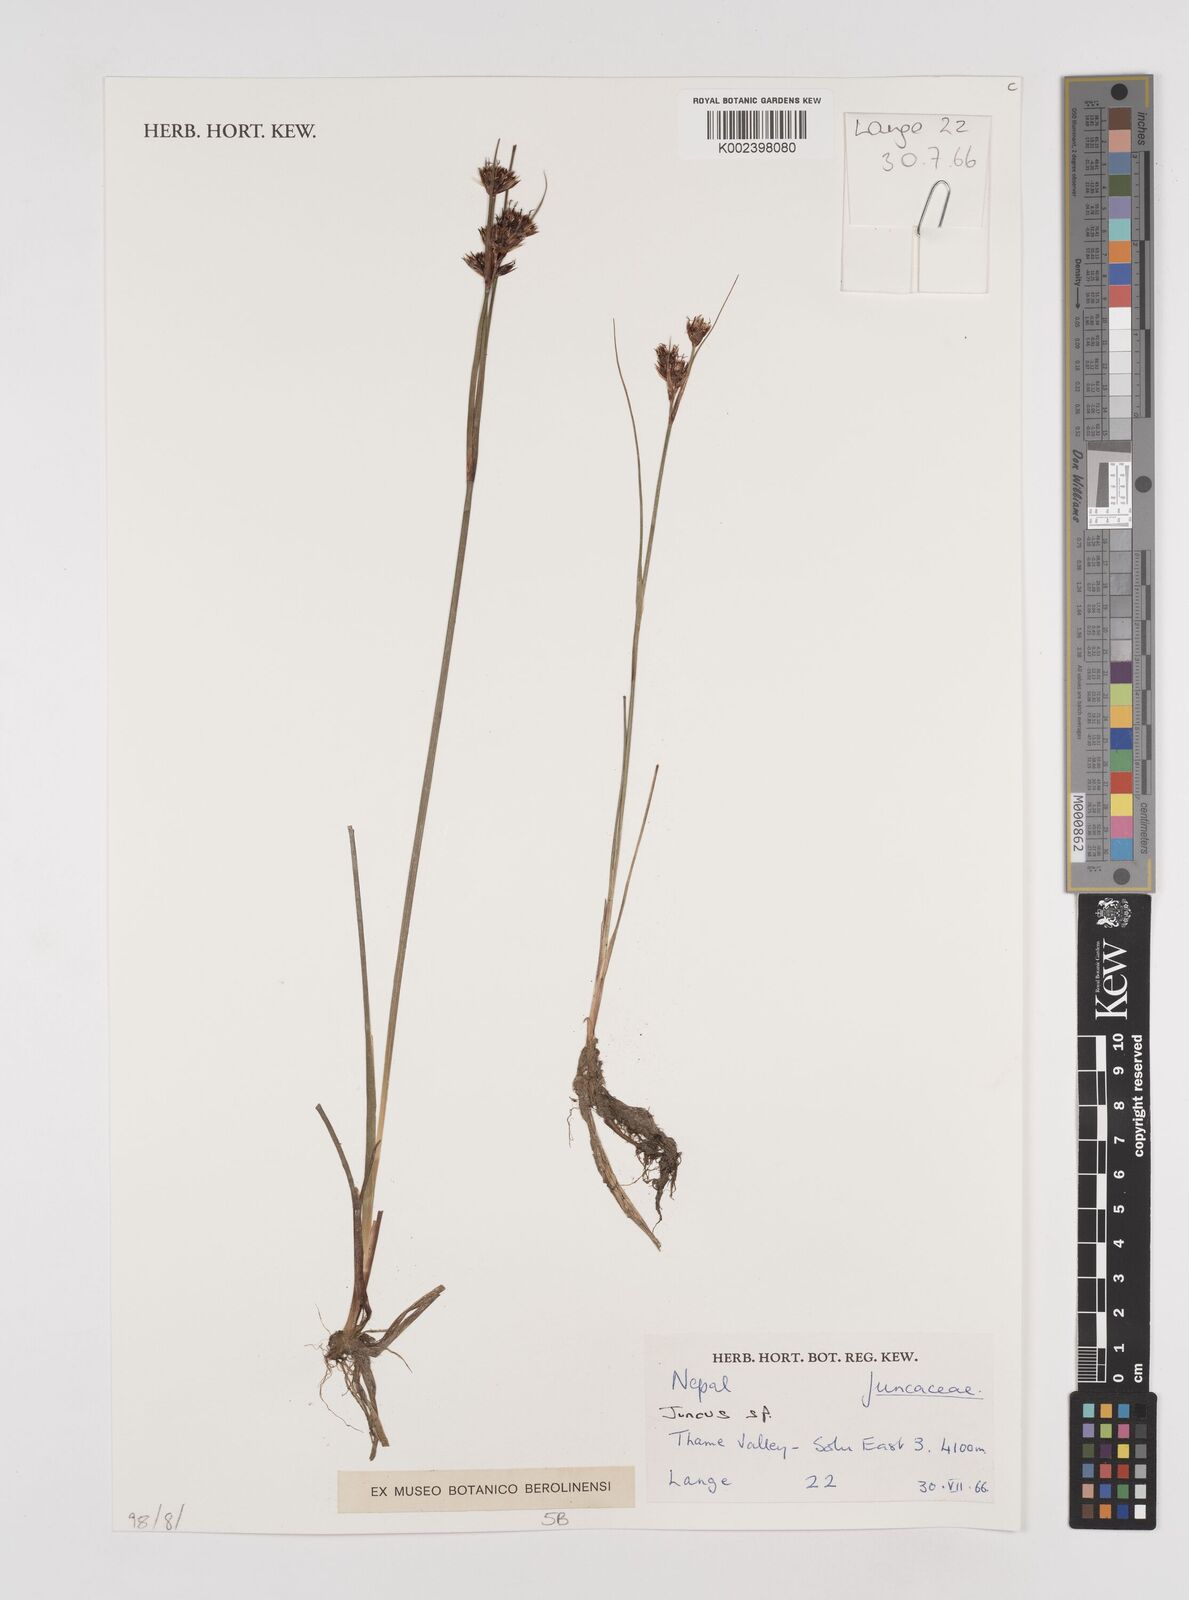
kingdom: Plantae
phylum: Tracheophyta
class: Liliopsida
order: Poales
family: Juncaceae
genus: Juncus
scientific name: Juncus
